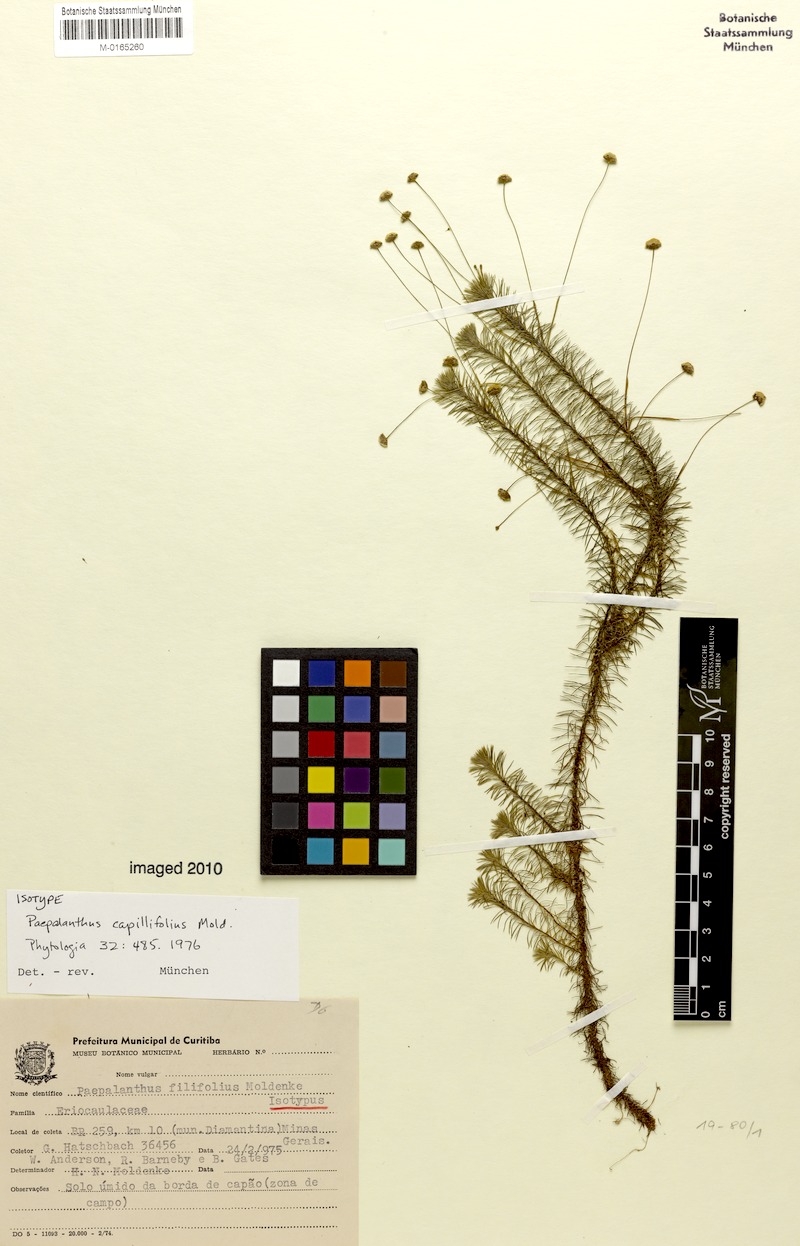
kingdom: Plantae
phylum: Tracheophyta
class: Liliopsida
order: Poales
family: Eriocaulaceae
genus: Paepalanthus
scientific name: Paepalanthus capillifolius
